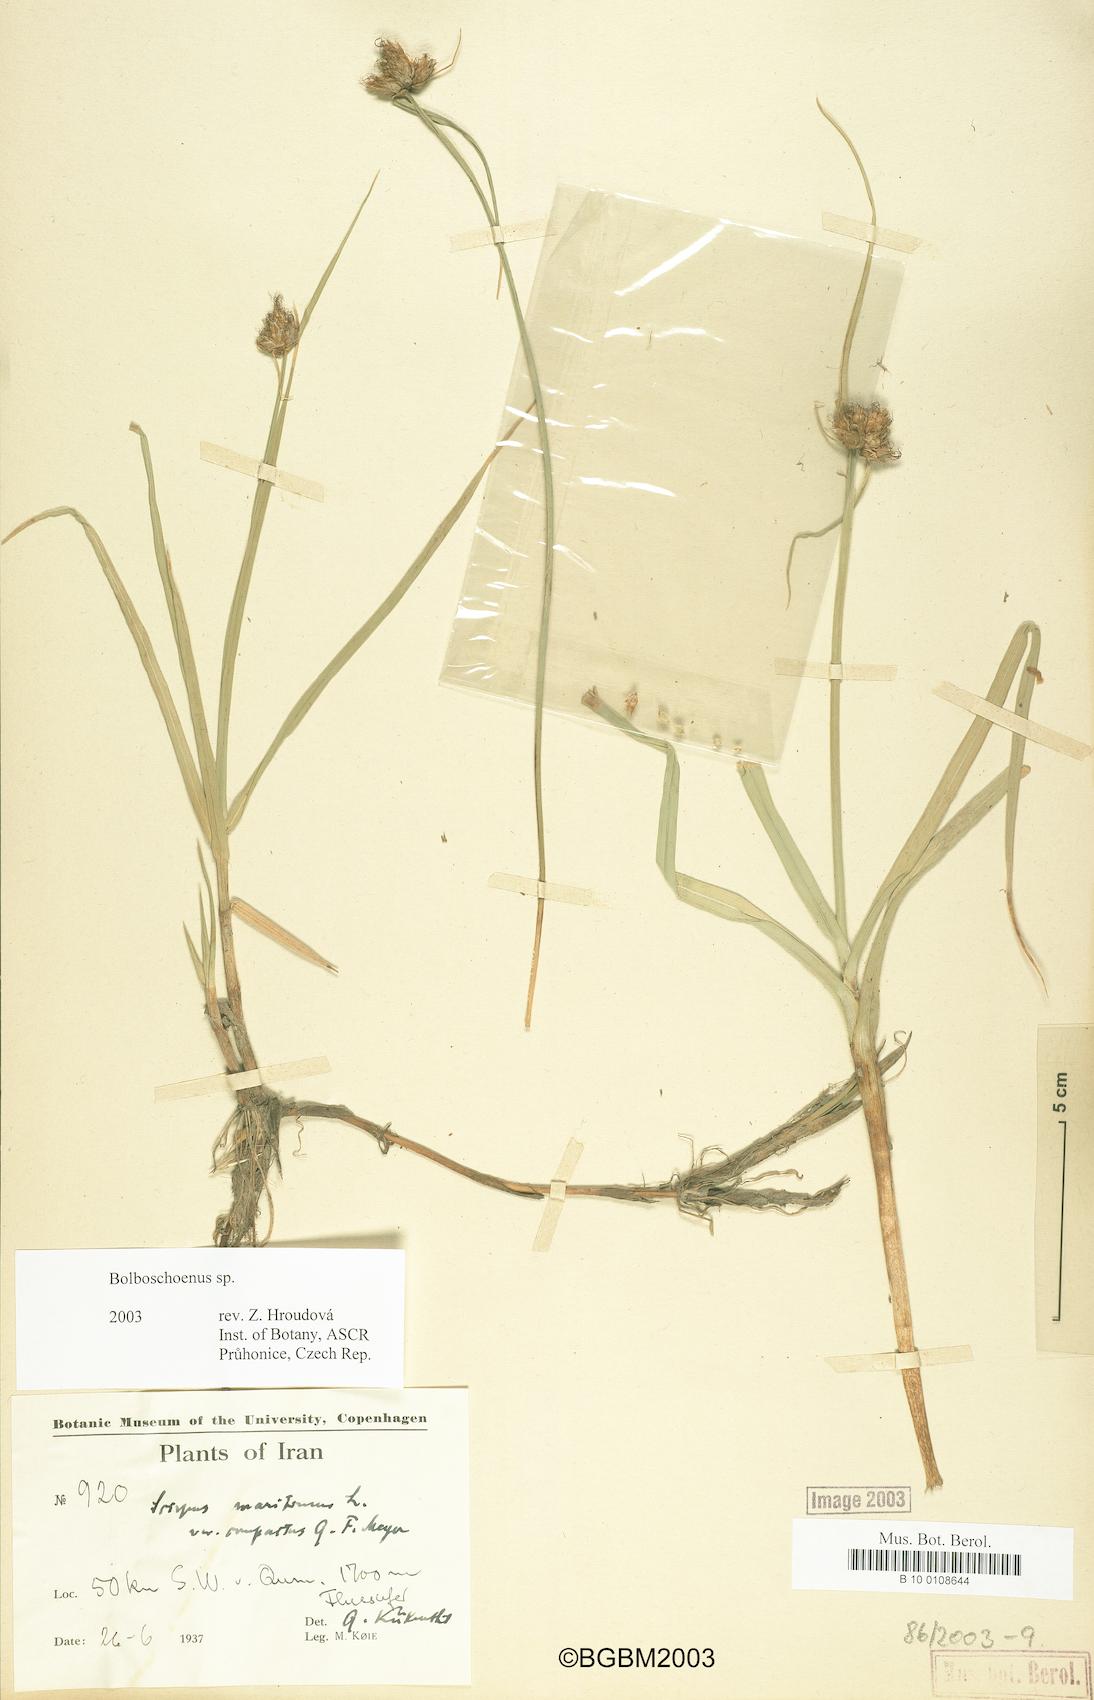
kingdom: Plantae
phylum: Tracheophyta
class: Liliopsida
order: Poales
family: Cyperaceae
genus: Bolboschoenus
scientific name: Bolboschoenus
